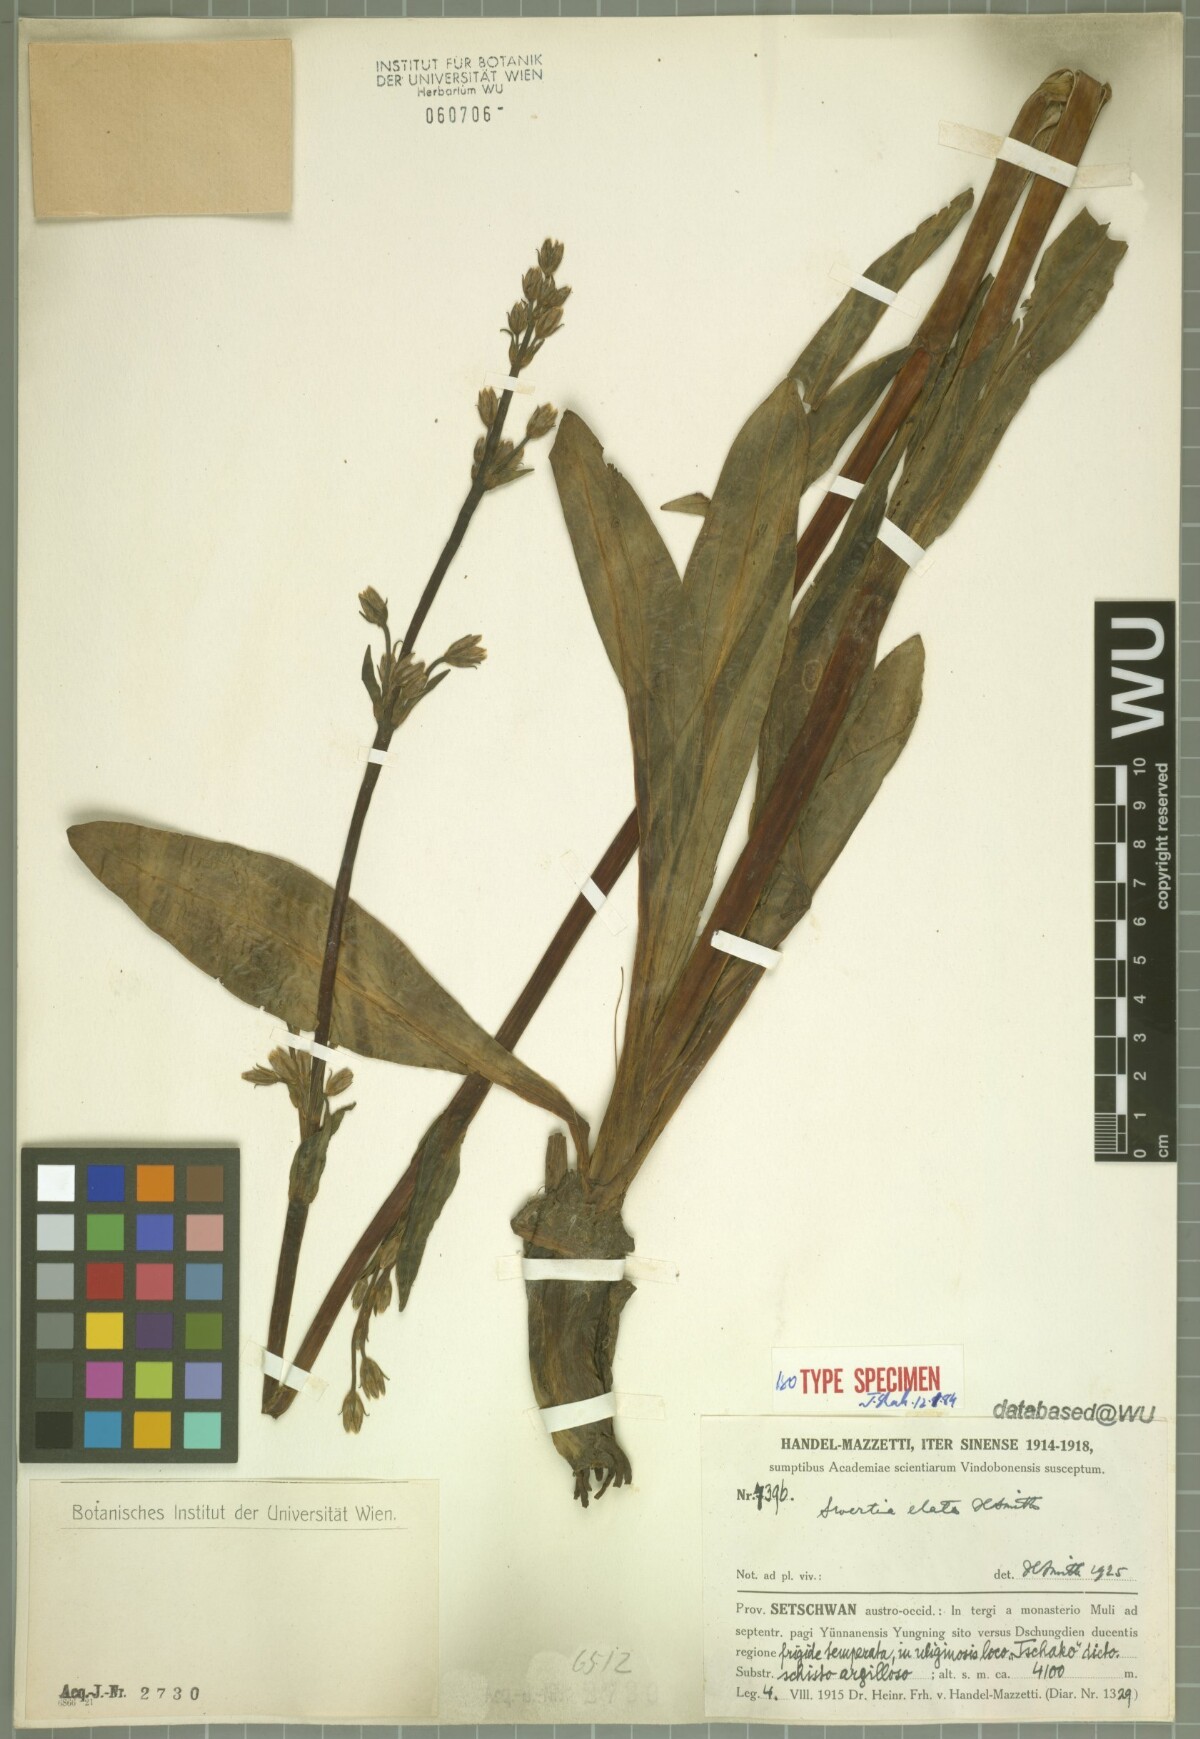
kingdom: Plantae
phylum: Tracheophyta
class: Magnoliopsida
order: Gentianales
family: Gentianaceae
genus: Swertia
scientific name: Swertia elata
